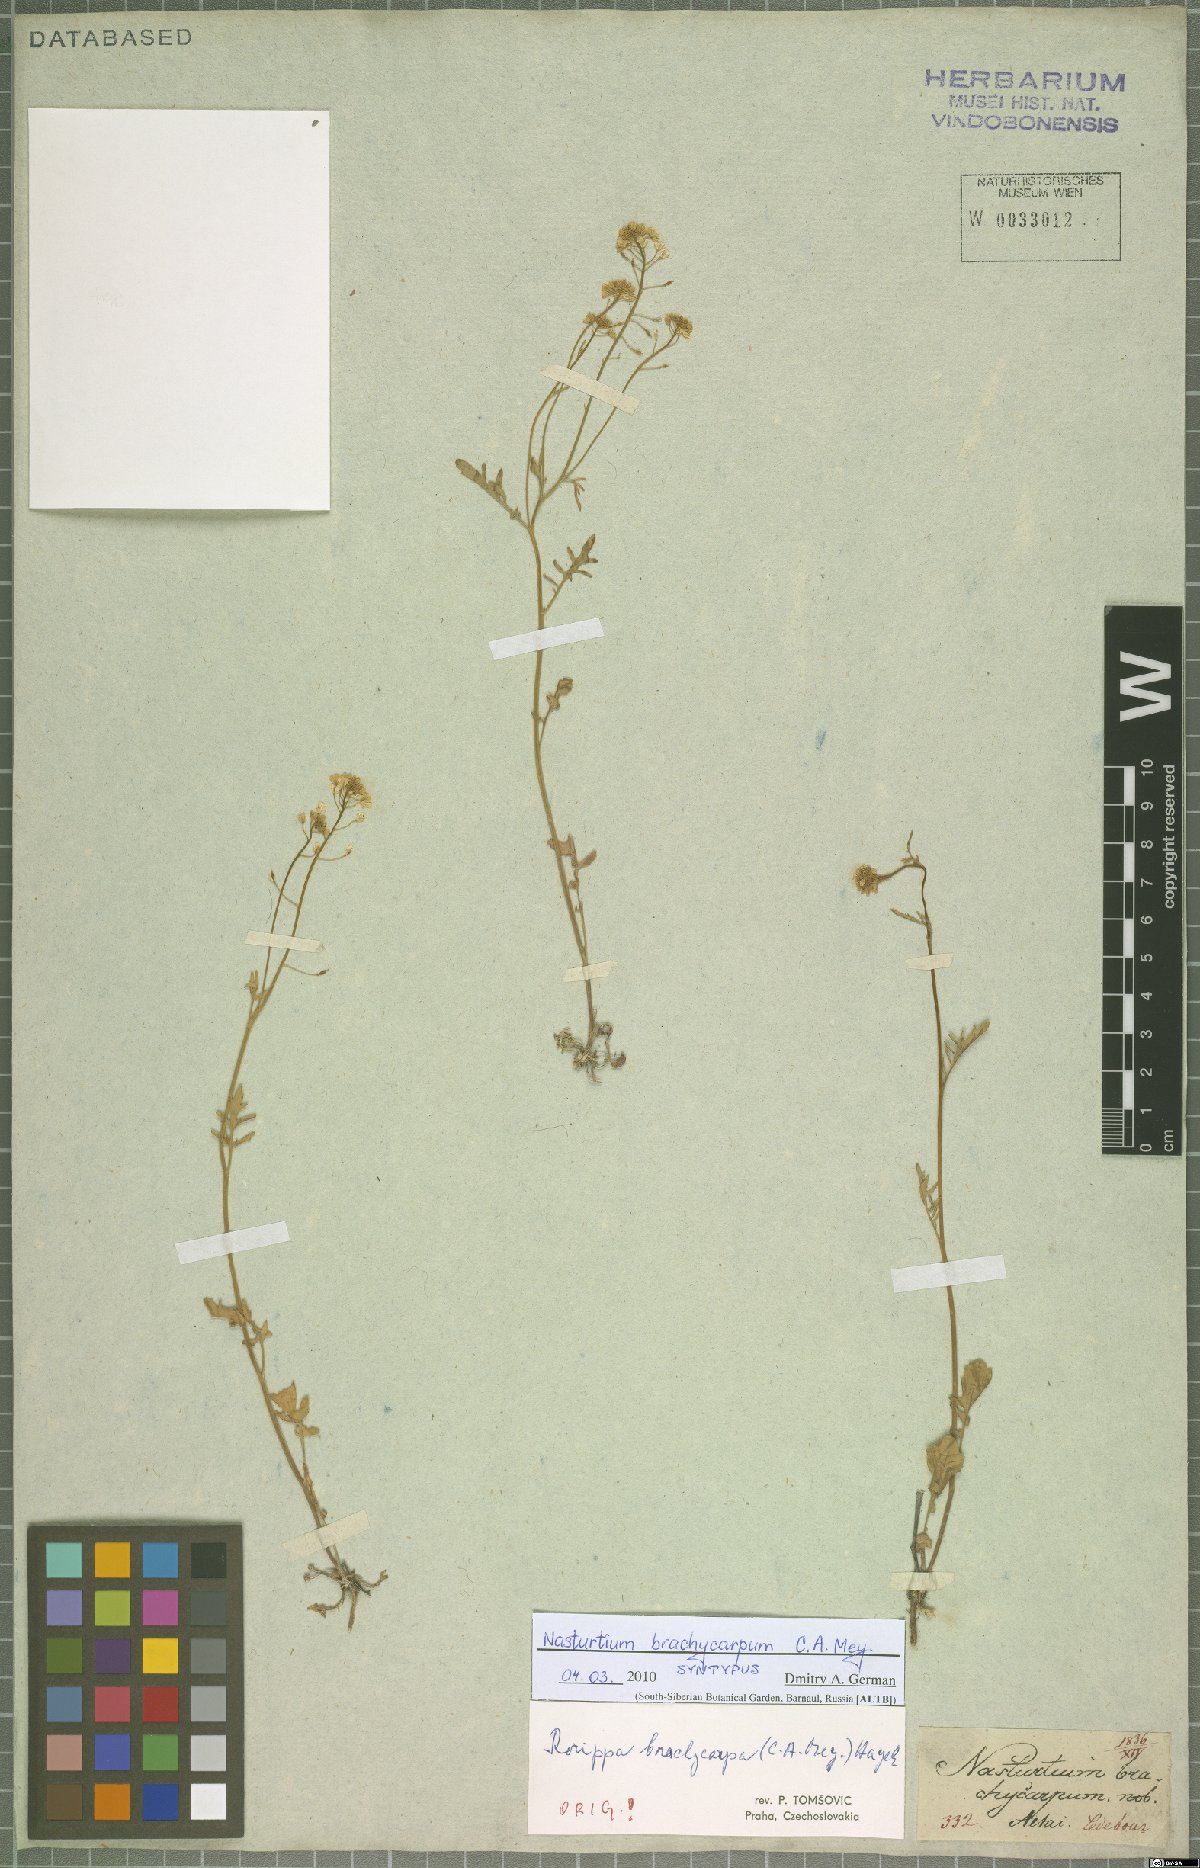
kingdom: Plantae
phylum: Tracheophyta
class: Magnoliopsida
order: Brassicales
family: Brassicaceae
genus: Rorippa
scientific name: Rorippa brachycarpa
